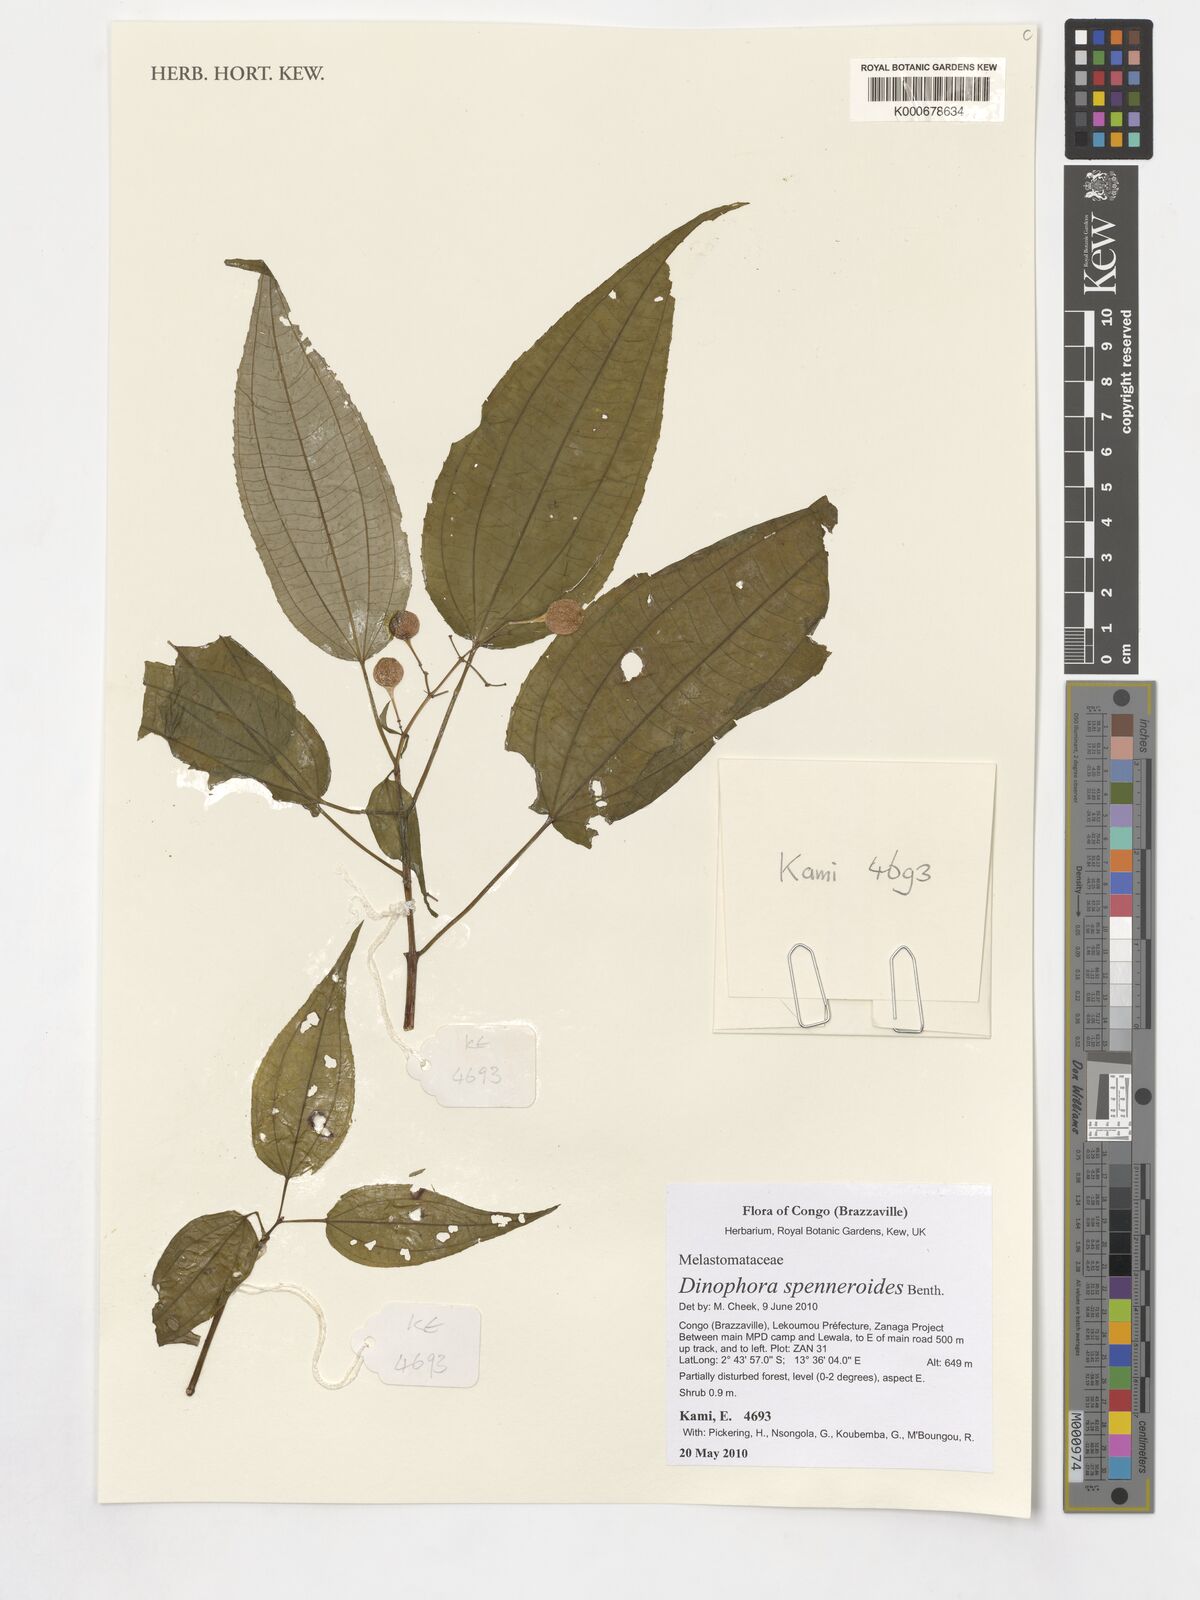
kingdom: Plantae
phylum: Tracheophyta
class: Magnoliopsida
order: Myrtales
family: Melastomataceae
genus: Dinophora
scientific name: Dinophora spenneroides
